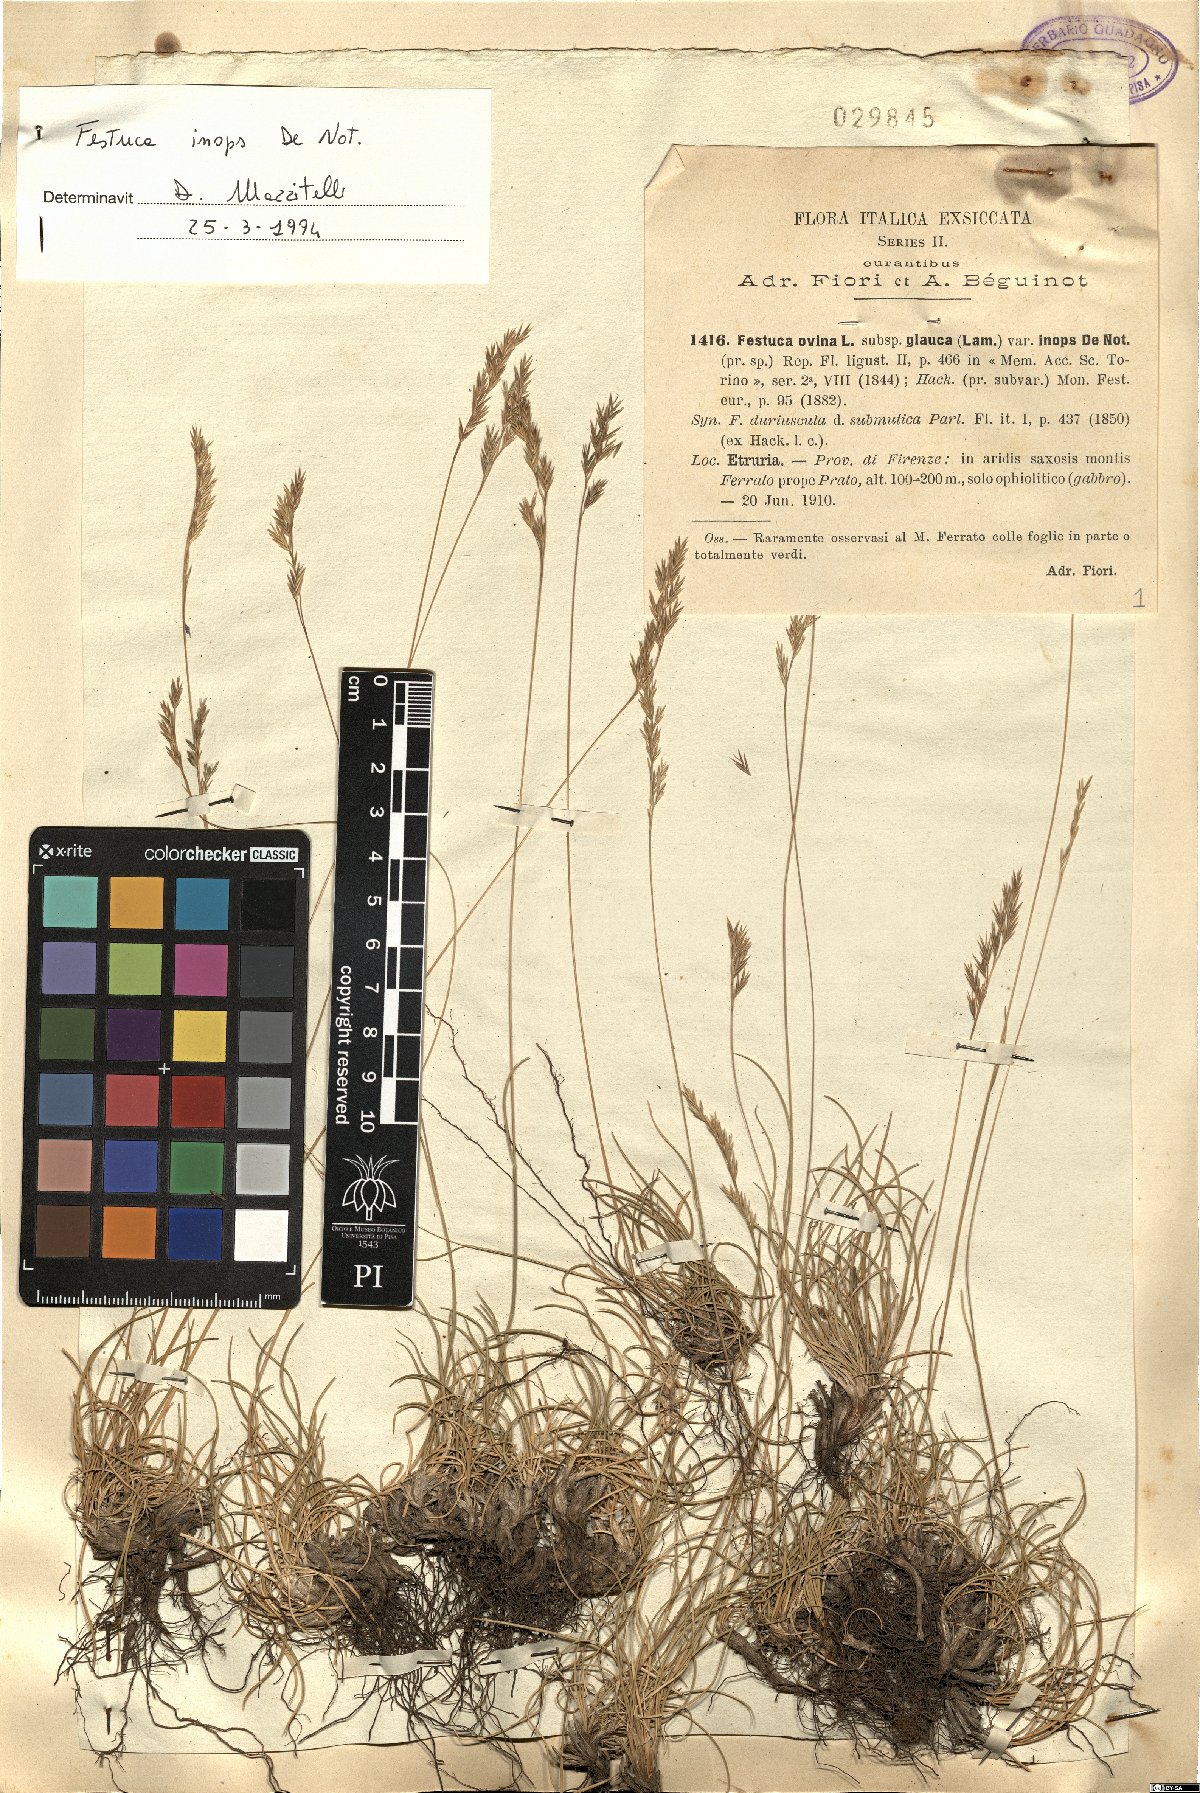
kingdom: Plantae
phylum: Tracheophyta
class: Liliopsida
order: Poales
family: Poaceae
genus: Festuca
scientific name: Festuca inops
